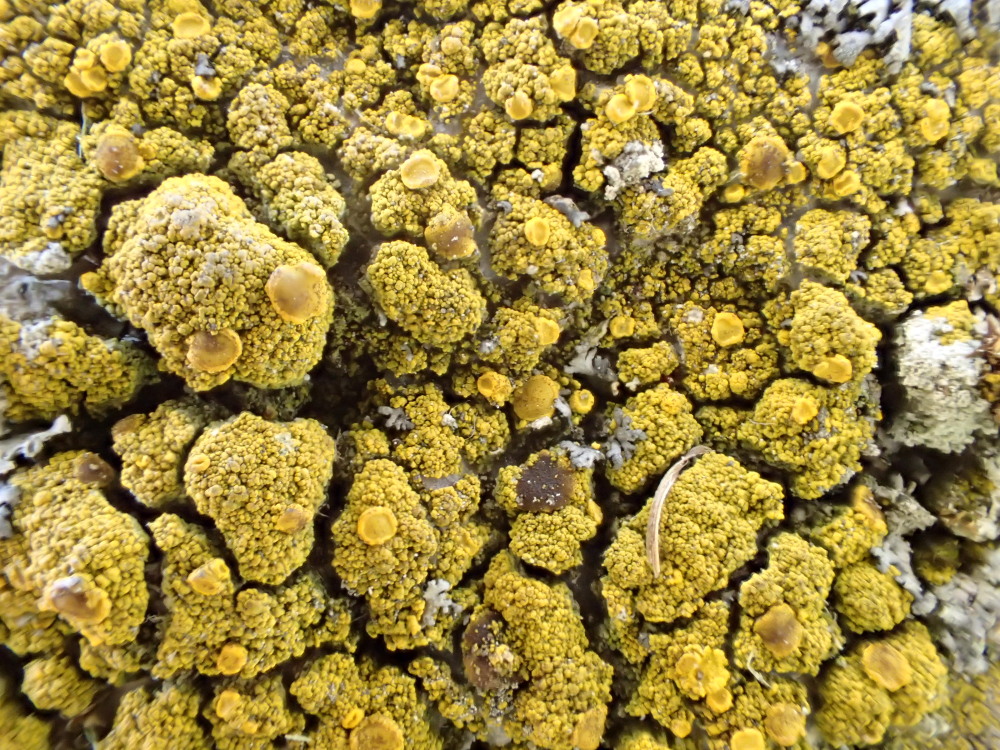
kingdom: Fungi
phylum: Ascomycota
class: Candelariomycetes
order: Candelariales
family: Candelariaceae
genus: Candelariella
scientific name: Candelariella vitellina
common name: almindelig æggeblommelav
